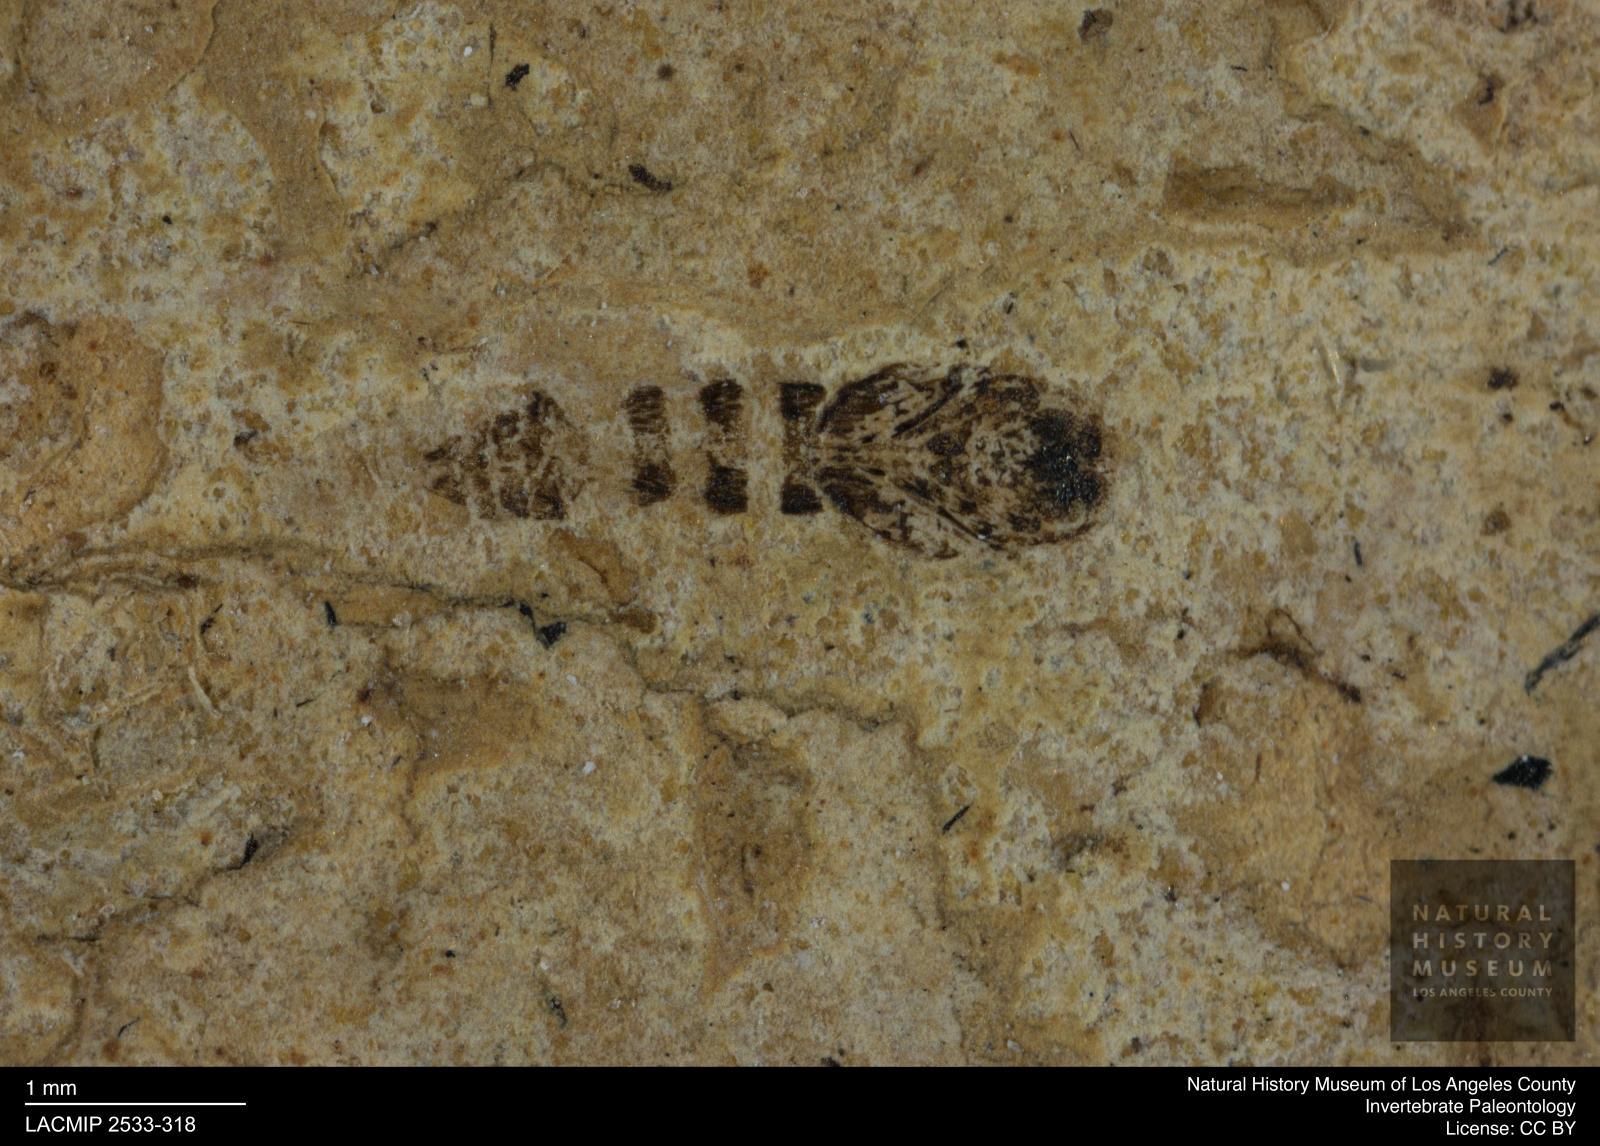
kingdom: Animalia
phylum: Arthropoda
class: Insecta
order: Diptera
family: Ceratopogonidae
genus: Ceratopogon
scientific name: Ceratopogon
